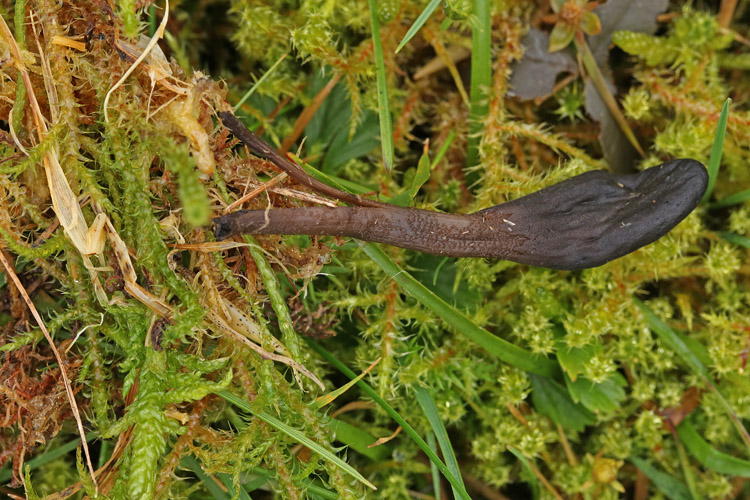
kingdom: Fungi
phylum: Ascomycota
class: Geoglossomycetes
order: Geoglossales
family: Geoglossaceae
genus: Geoglossum
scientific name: Geoglossum fallax
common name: småskællet jordtunge
